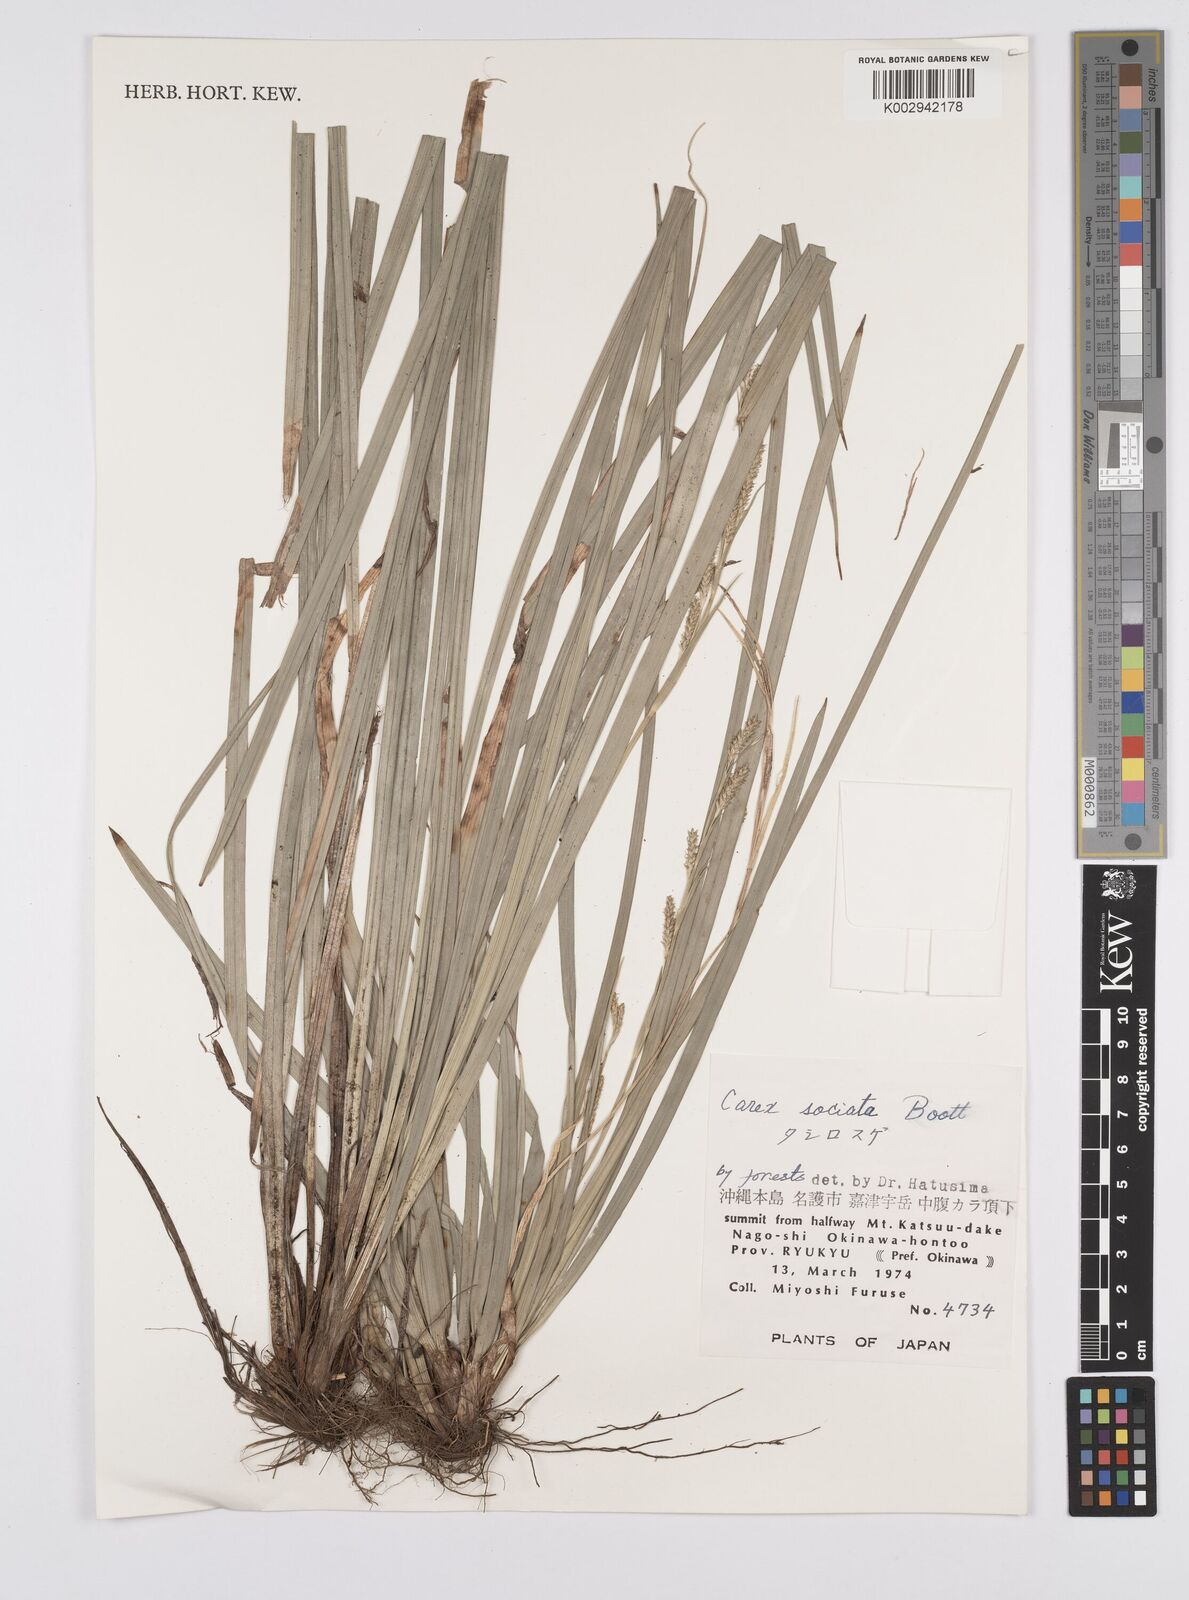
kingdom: Plantae
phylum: Tracheophyta
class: Liliopsida
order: Poales
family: Cyperaceae
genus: Carex
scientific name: Carex chinensis
